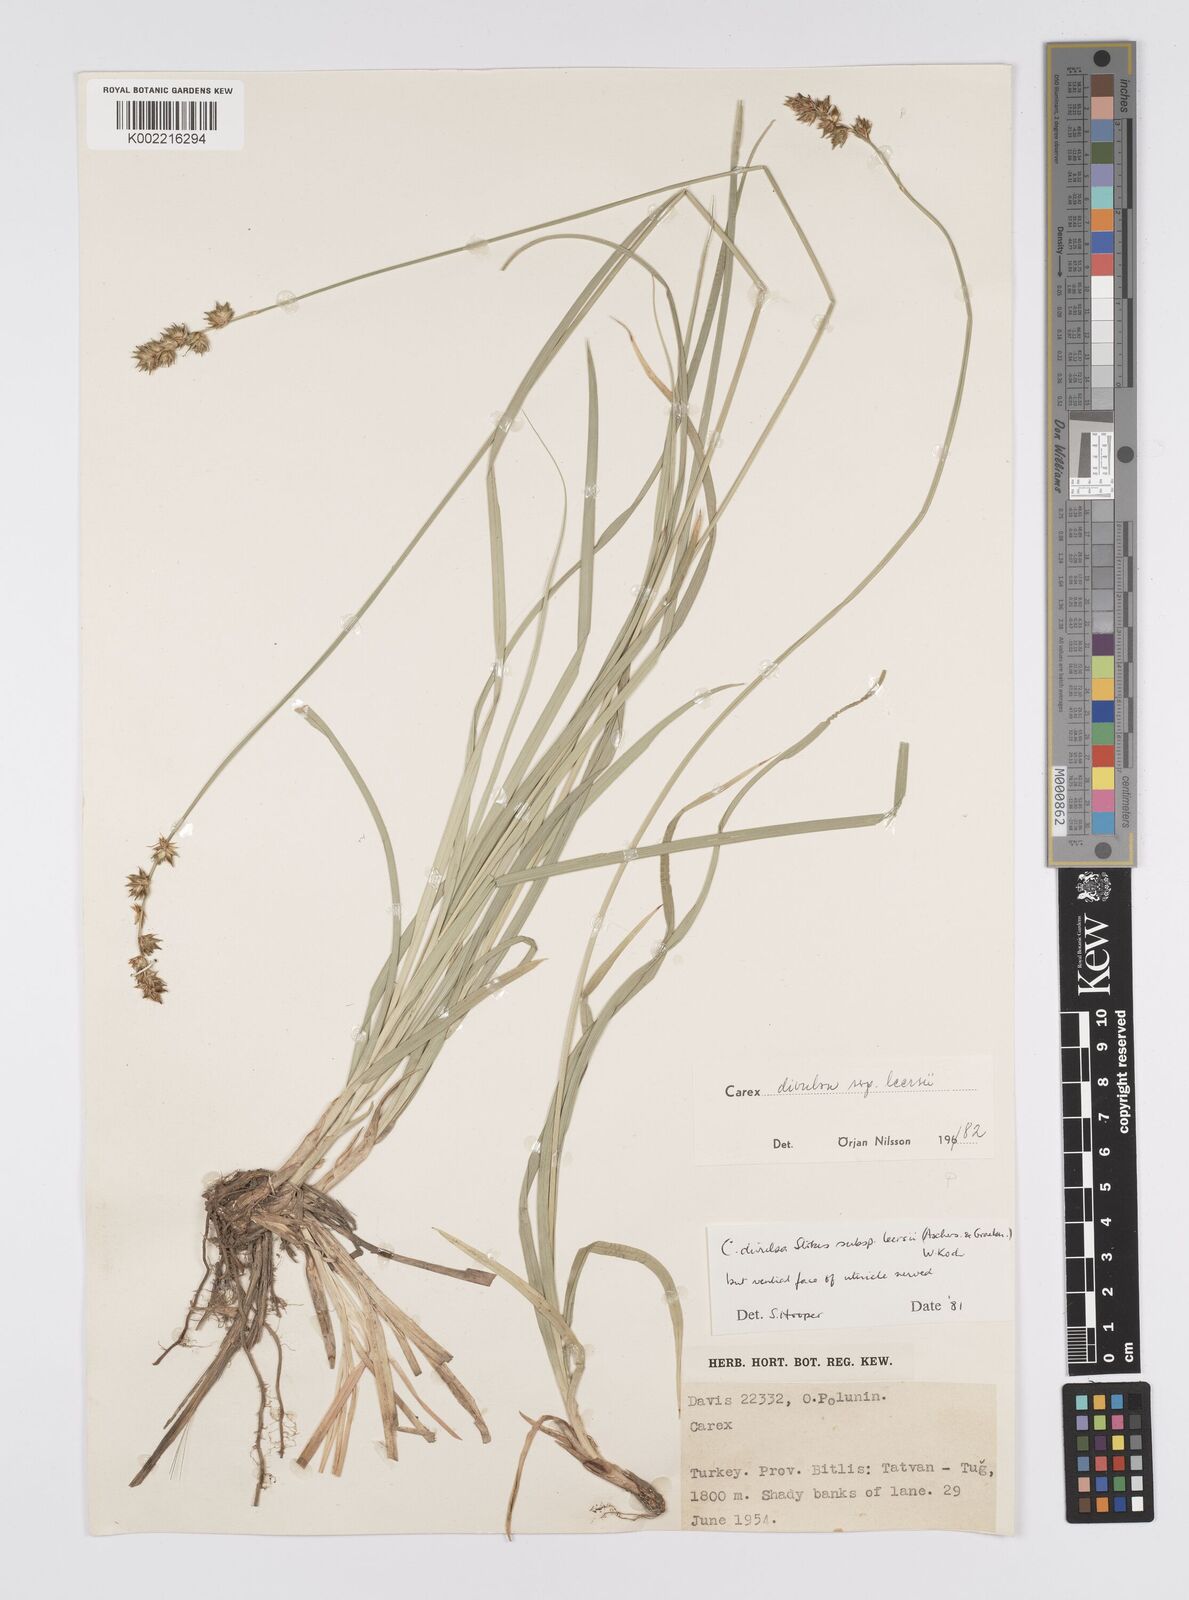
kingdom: Plantae
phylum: Tracheophyta
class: Liliopsida
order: Poales
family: Cyperaceae
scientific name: Cyperaceae
